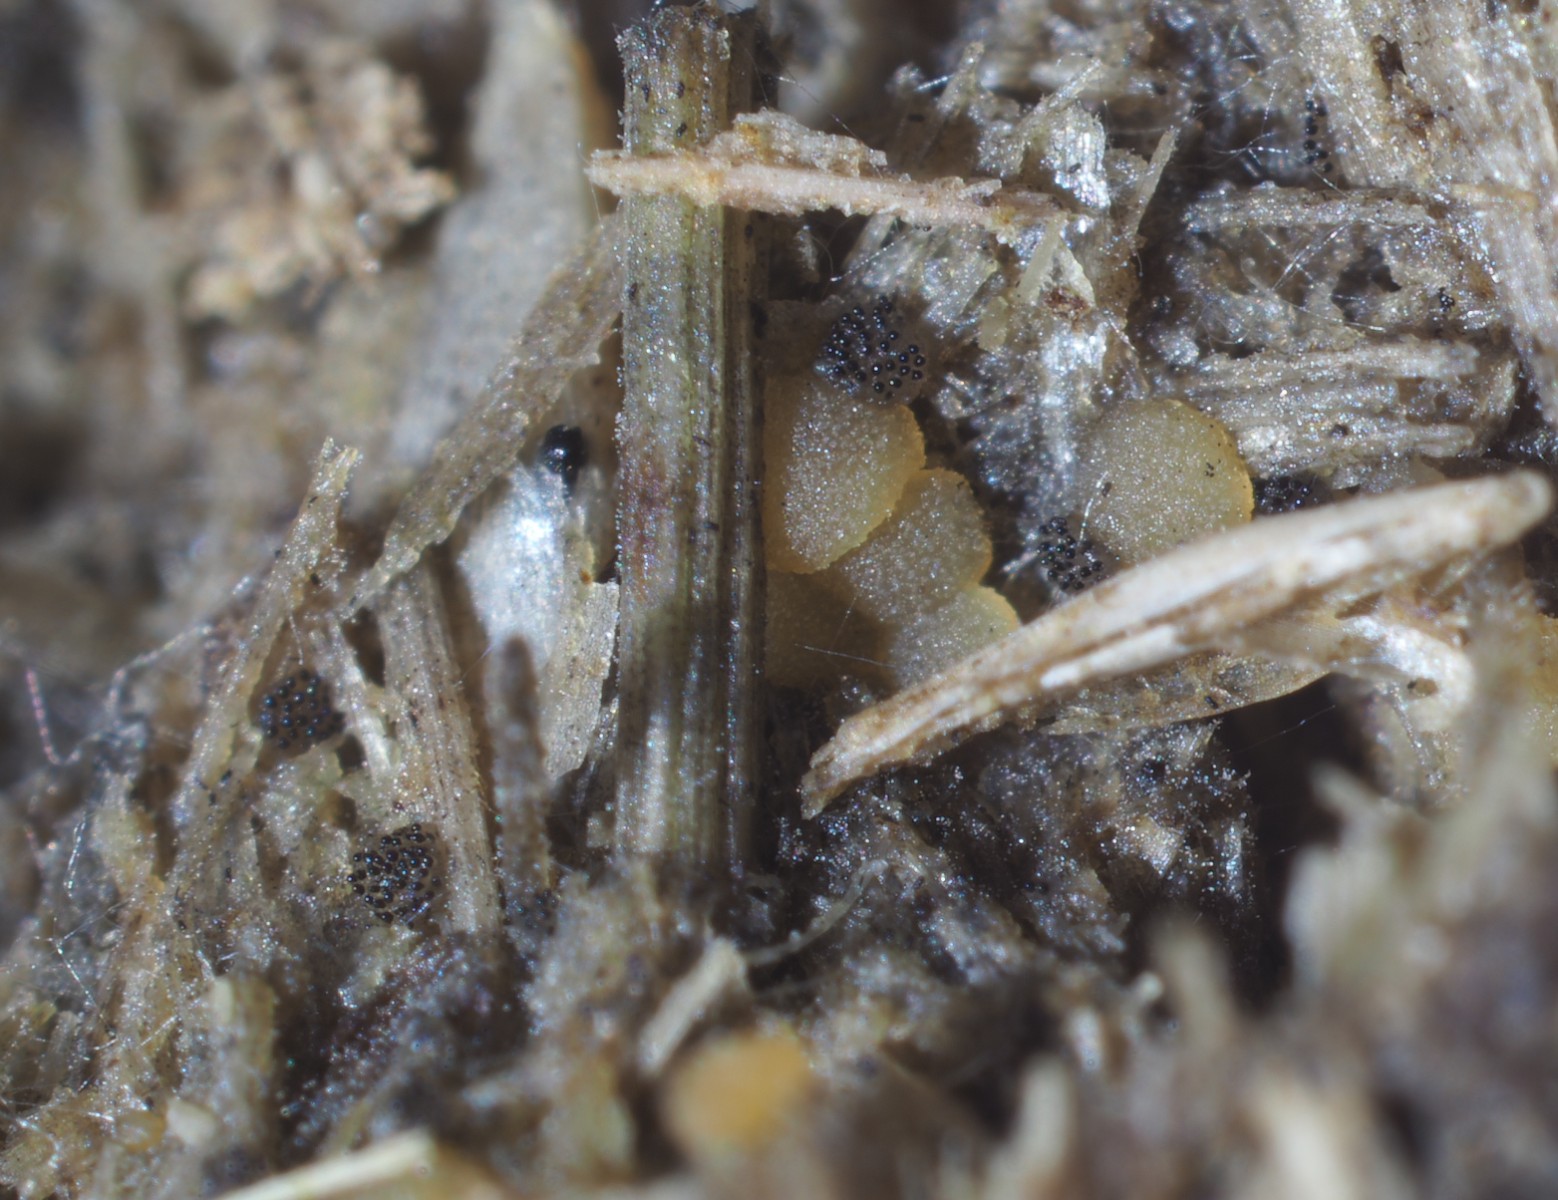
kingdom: Fungi
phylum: Ascomycota
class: Pezizomycetes
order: Pezizales
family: Ascobolaceae
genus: Saccobolus
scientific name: Saccobolus beckii
